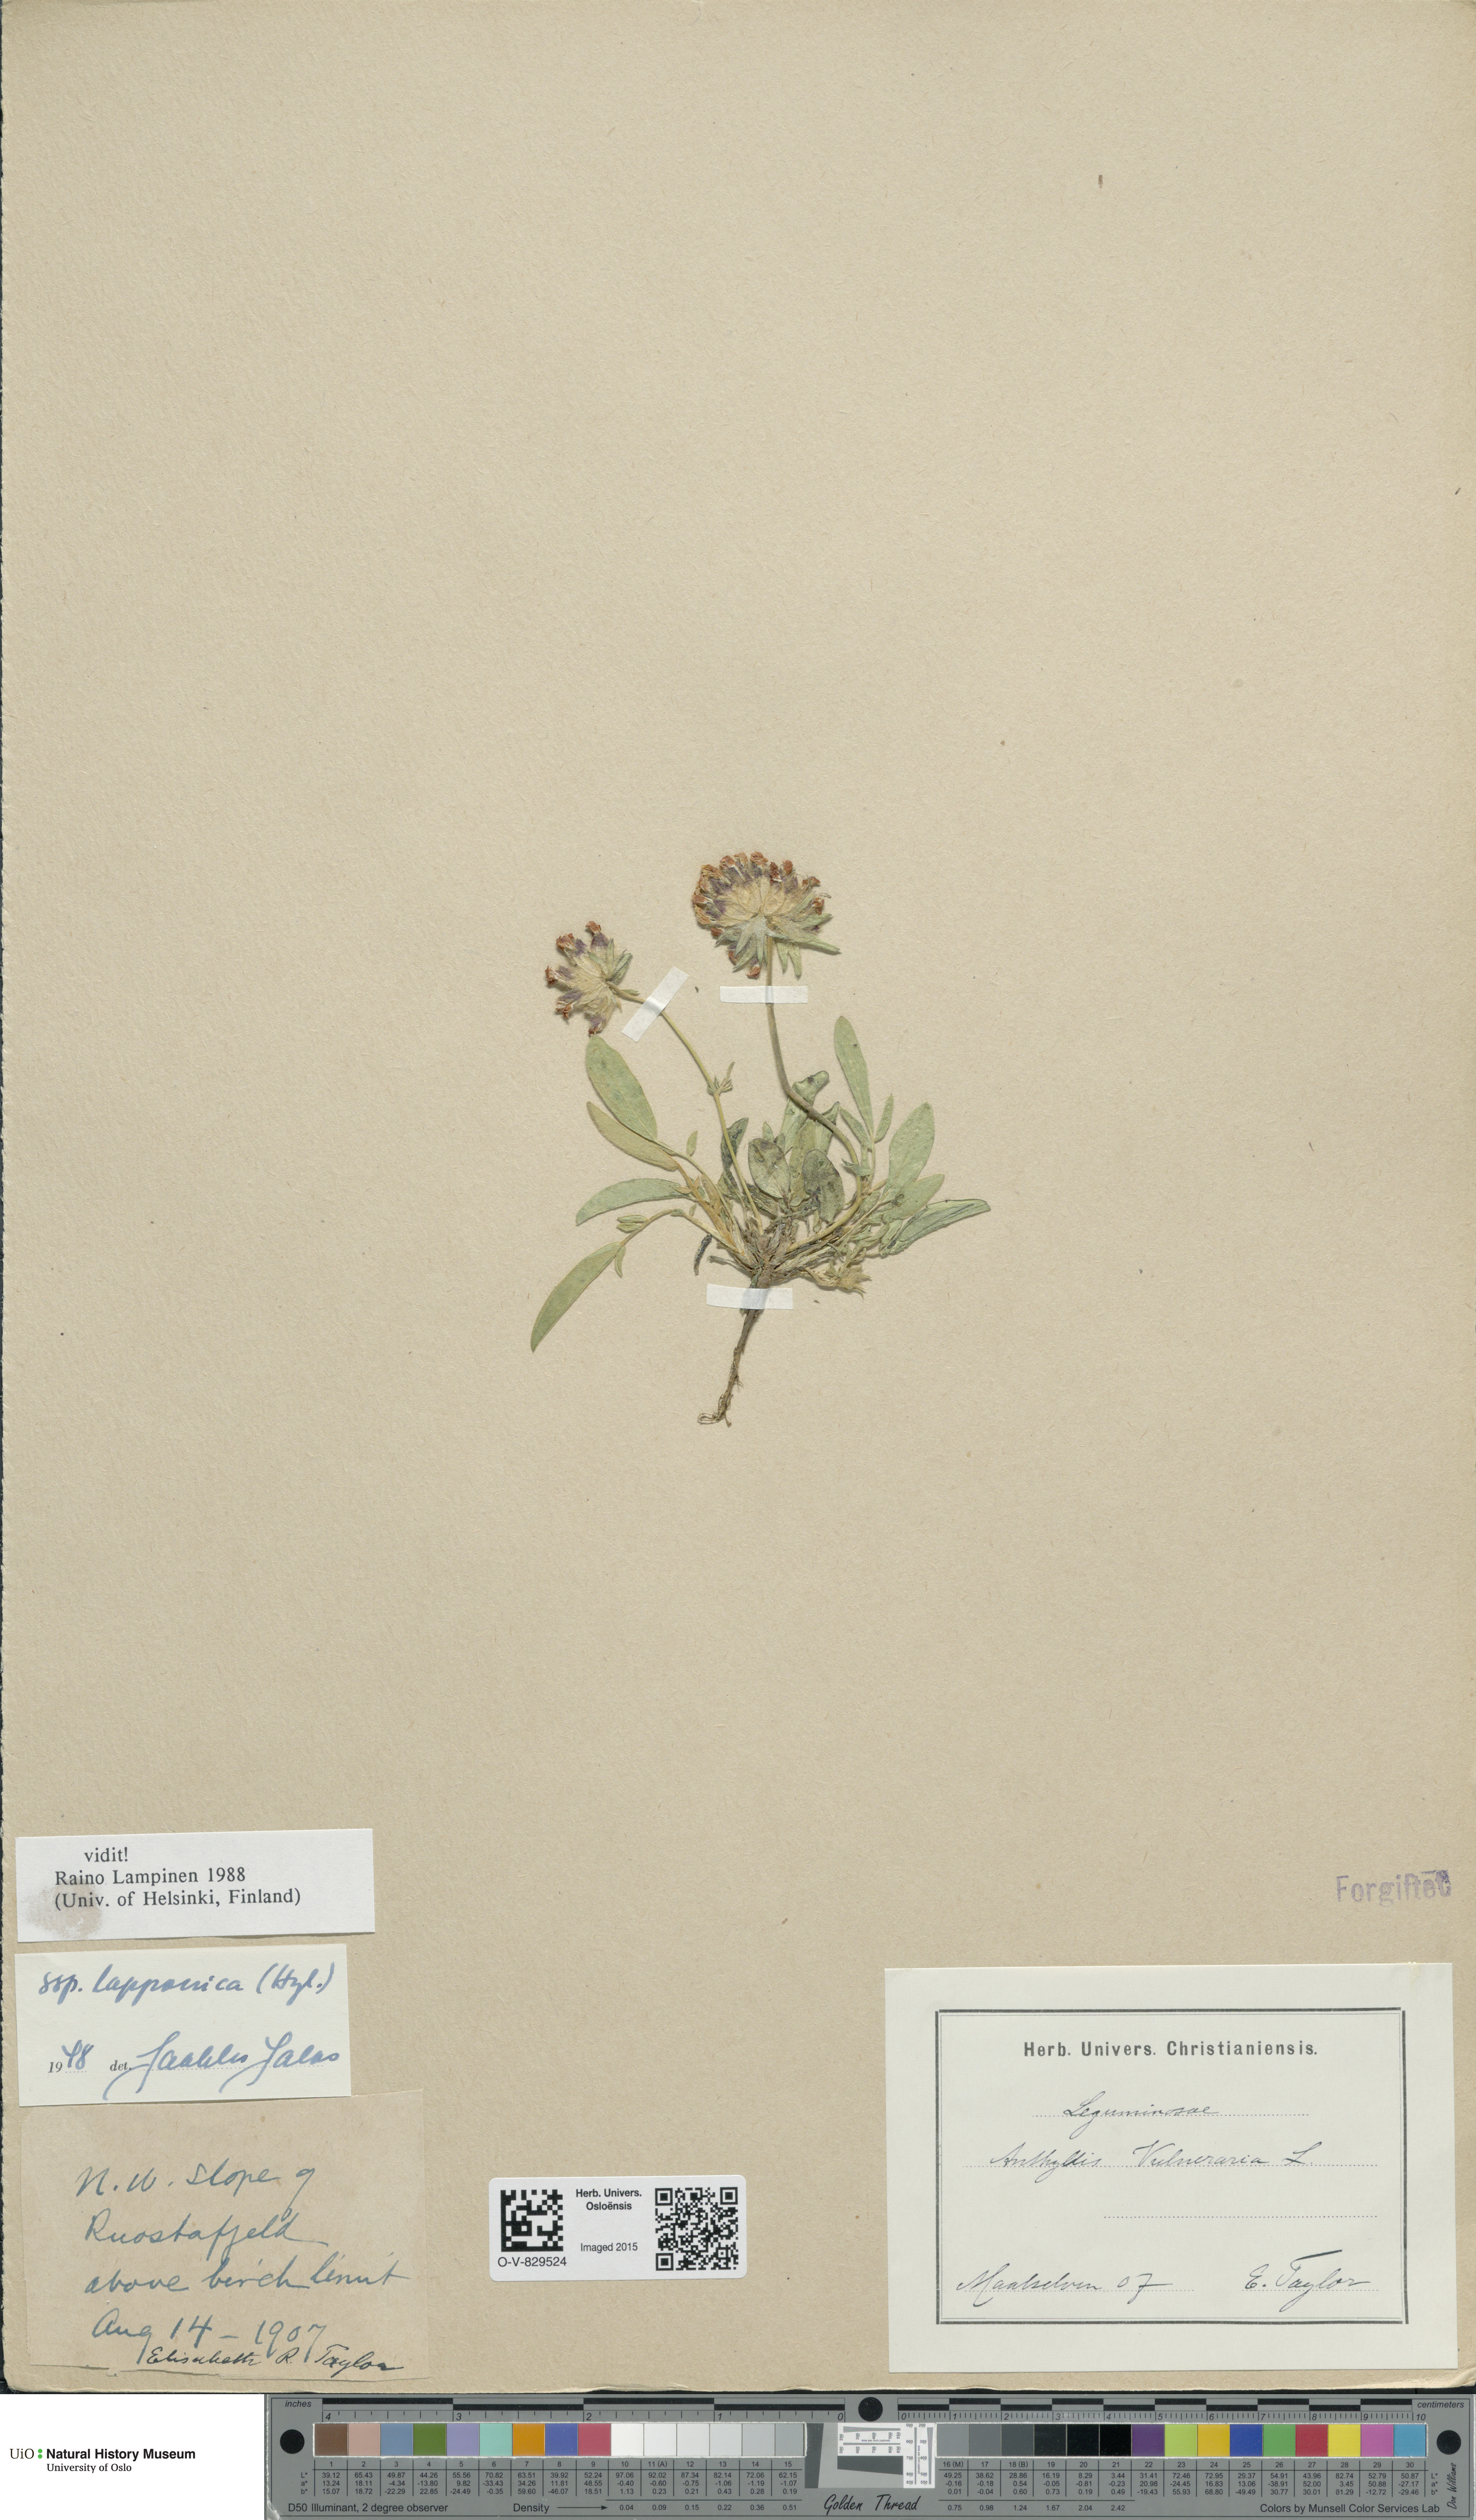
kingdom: Plantae
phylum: Tracheophyta
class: Magnoliopsida
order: Fabales
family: Fabaceae
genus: Anthyllis
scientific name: Anthyllis vulneraria
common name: Kidney vetch
